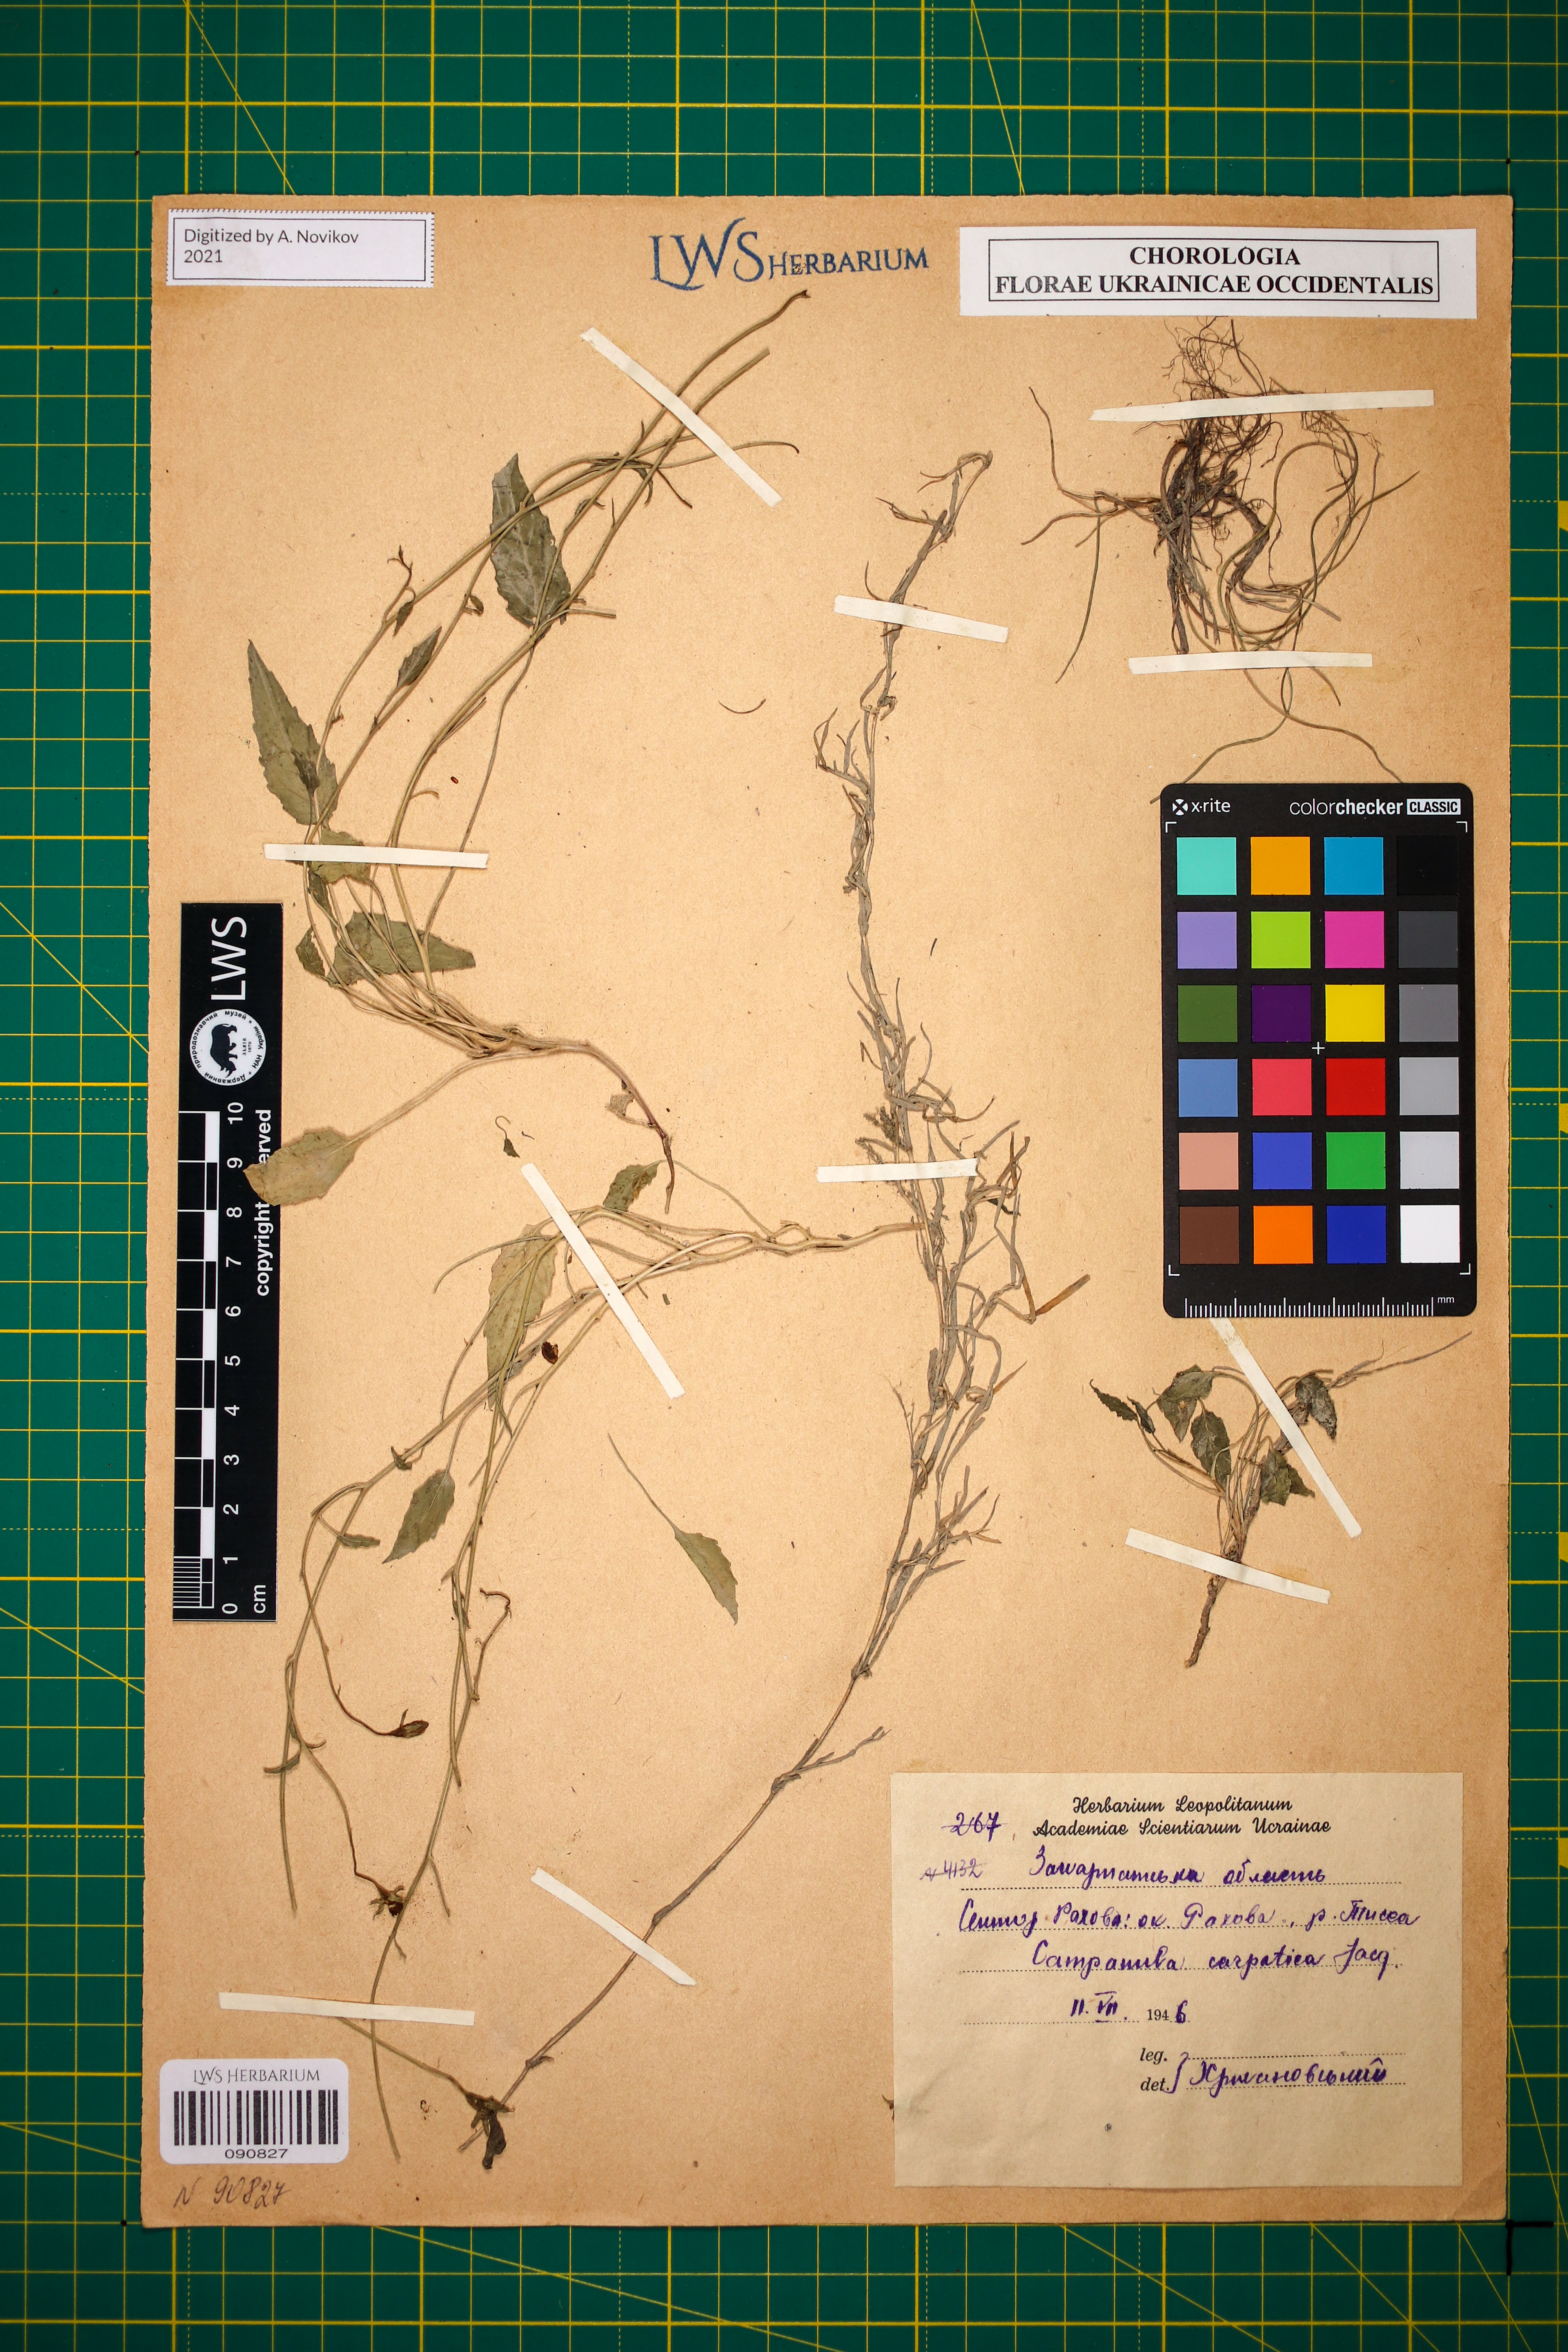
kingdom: Plantae
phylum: Tracheophyta
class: Magnoliopsida
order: Asterales
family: Campanulaceae
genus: Campanula
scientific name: Campanula carpatica
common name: Tussock bellflower
